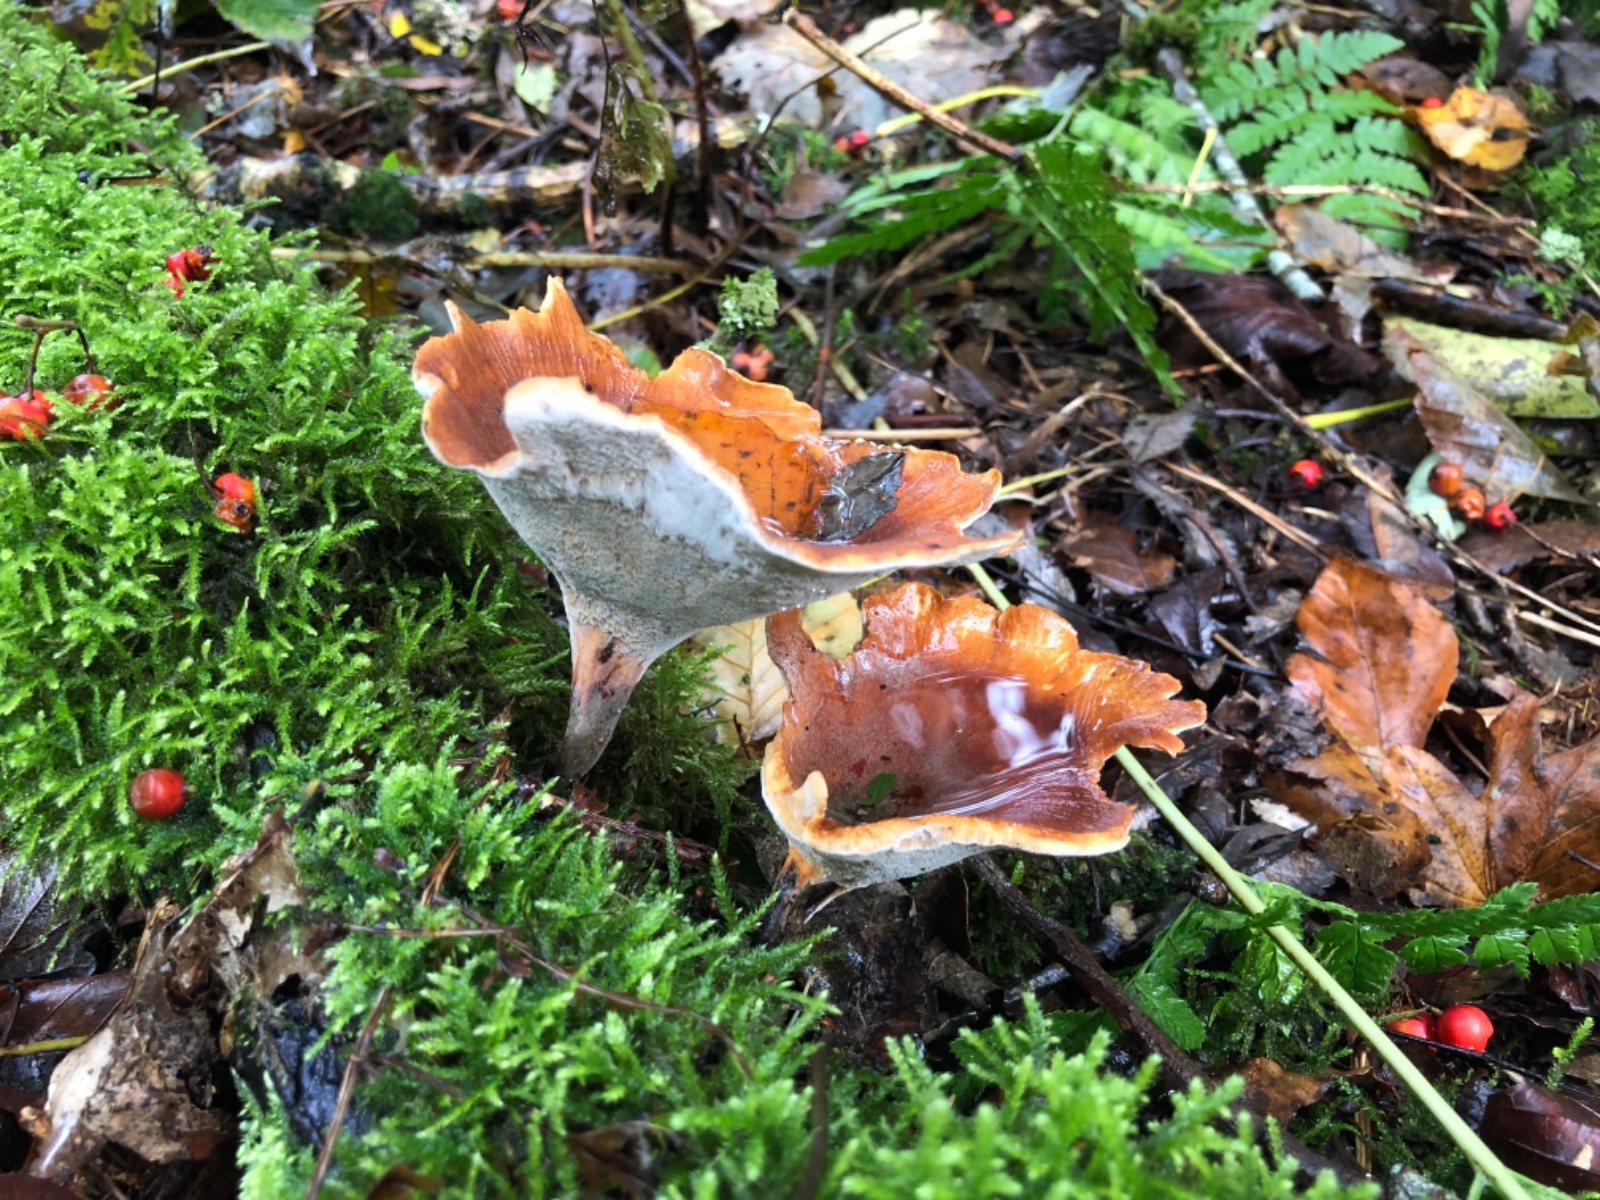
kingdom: Fungi
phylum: Basidiomycota
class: Agaricomycetes
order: Polyporales
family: Polyporaceae
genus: Picipes
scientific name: Picipes tubaeformis
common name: trompet-stilkporesvamp
